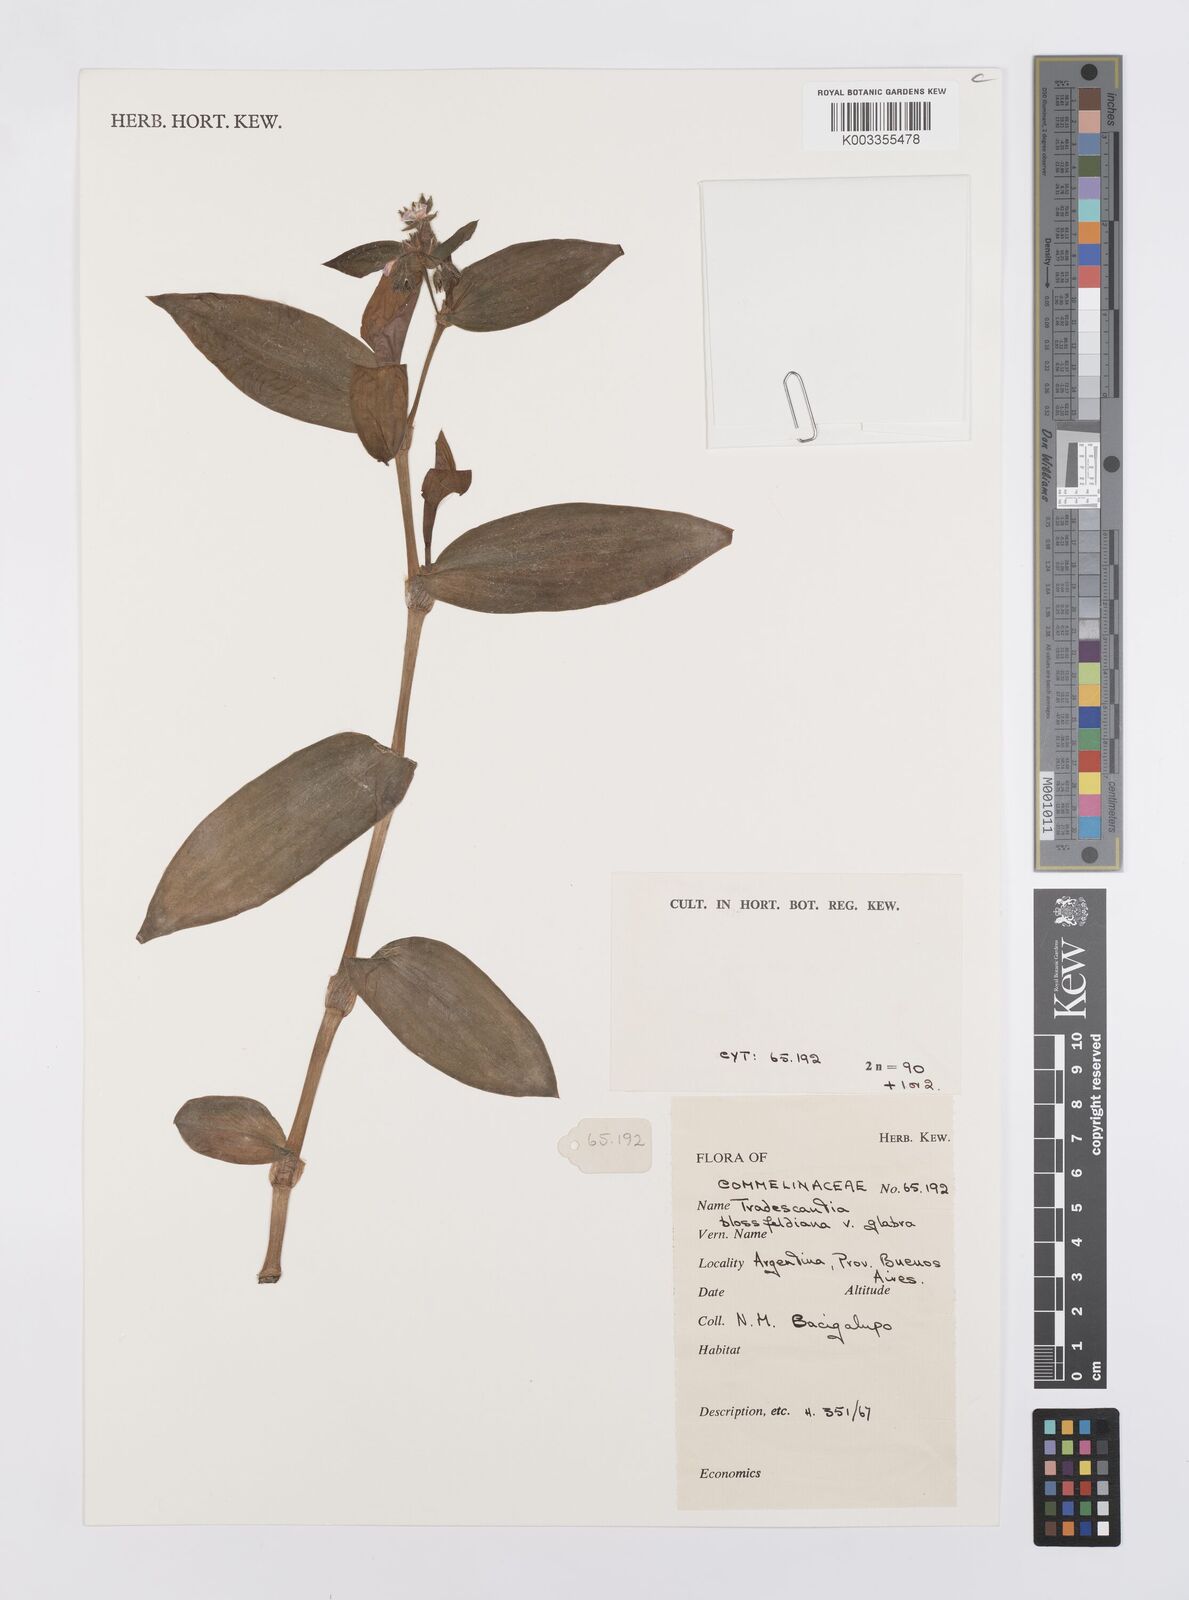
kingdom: Plantae
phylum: Tracheophyta
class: Liliopsida
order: Commelinales
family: Commelinaceae
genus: Tradescantia
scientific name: Tradescantia cerinthoides
